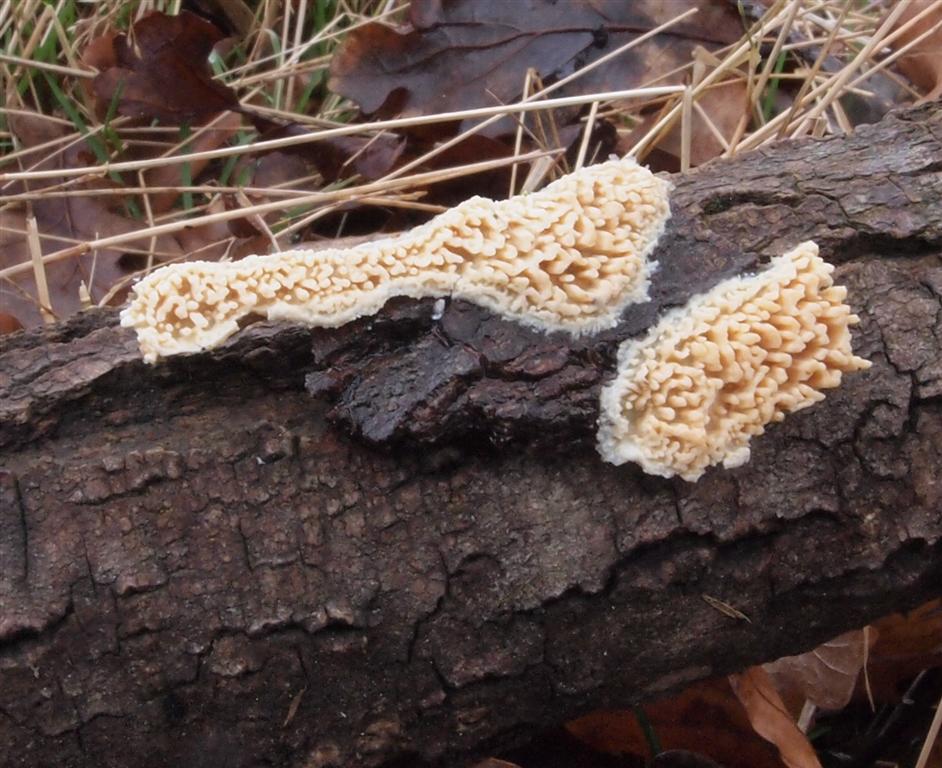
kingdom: Fungi
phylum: Basidiomycota
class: Agaricomycetes
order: Hymenochaetales
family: Schizoporaceae
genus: Xylodon
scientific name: Xylodon radula
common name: grovtandet kalkskind
